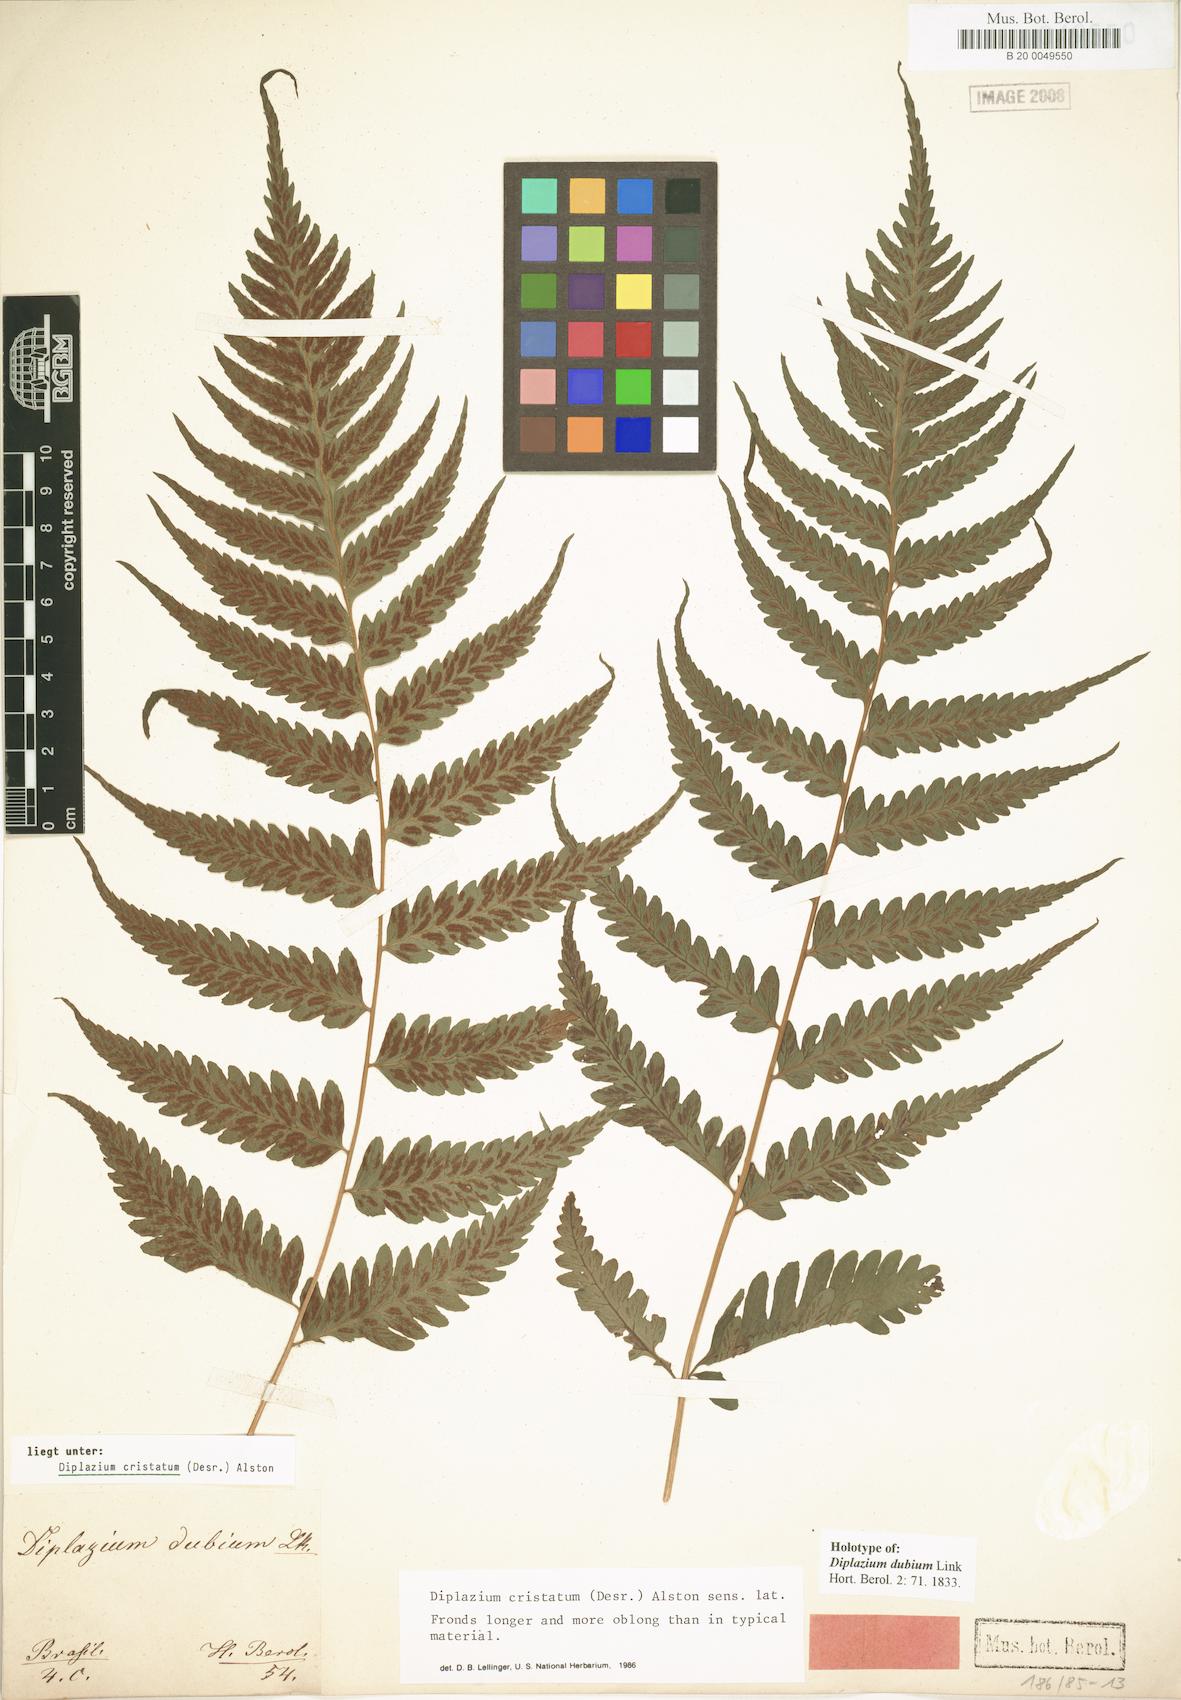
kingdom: Plantae
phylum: Tracheophyta
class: Polypodiopsida
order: Polypodiales
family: Athyriaceae
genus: Diplazium
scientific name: Diplazium cristatum
